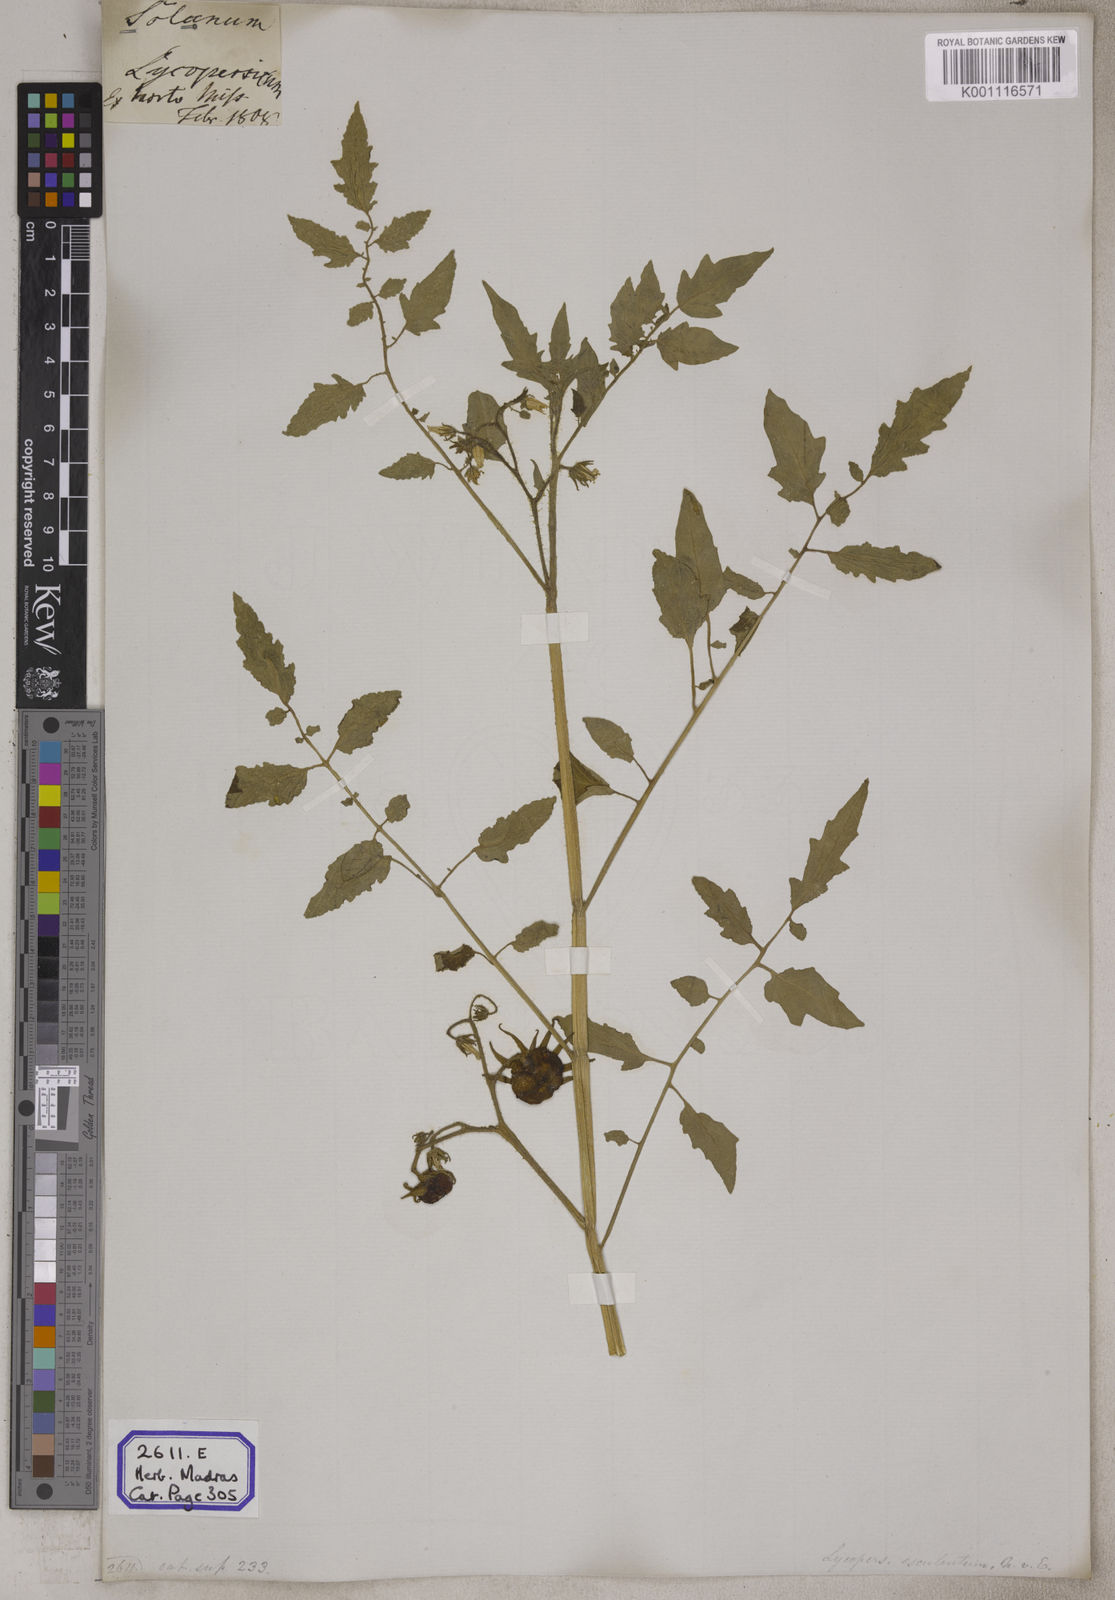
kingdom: Plantae
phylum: Tracheophyta
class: Magnoliopsida
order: Solanales
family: Solanaceae
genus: Solanum
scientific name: Solanum lycopersicum
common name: Garden tomato
